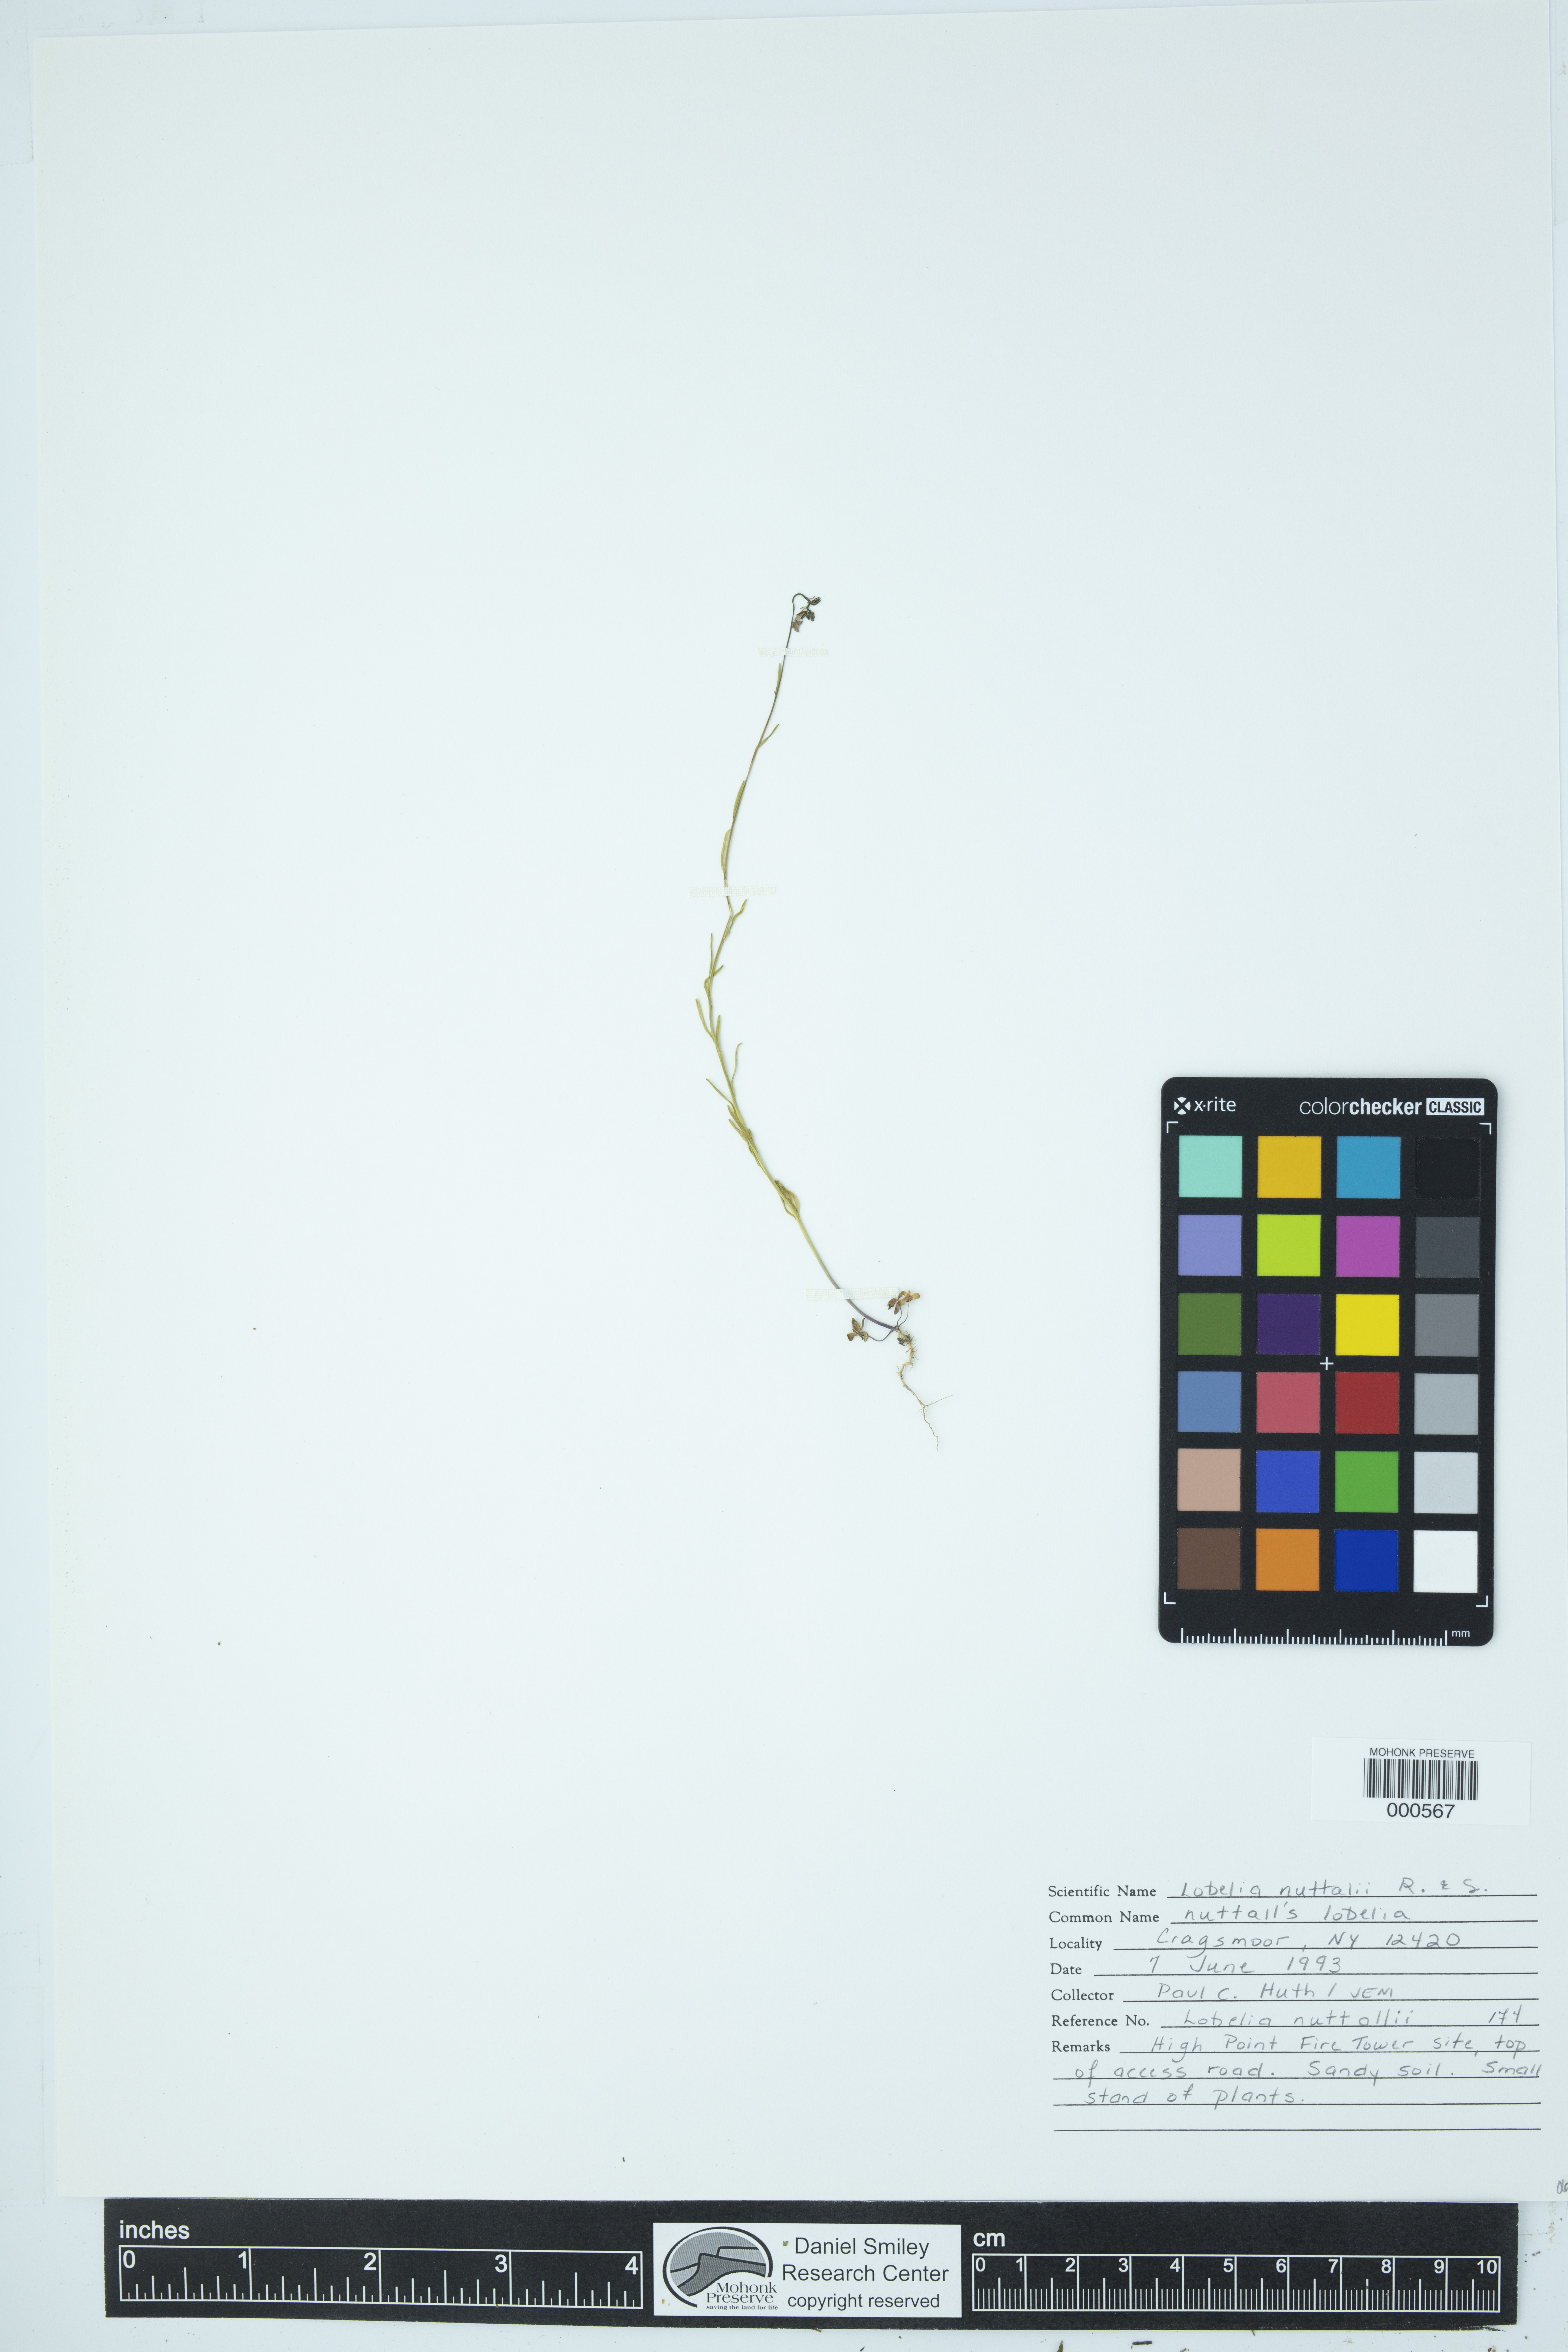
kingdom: Plantae
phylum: Tracheophyta
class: Magnoliopsida
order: Asterales
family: Campanulaceae
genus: Lobelia
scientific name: Lobelia nuttallii
